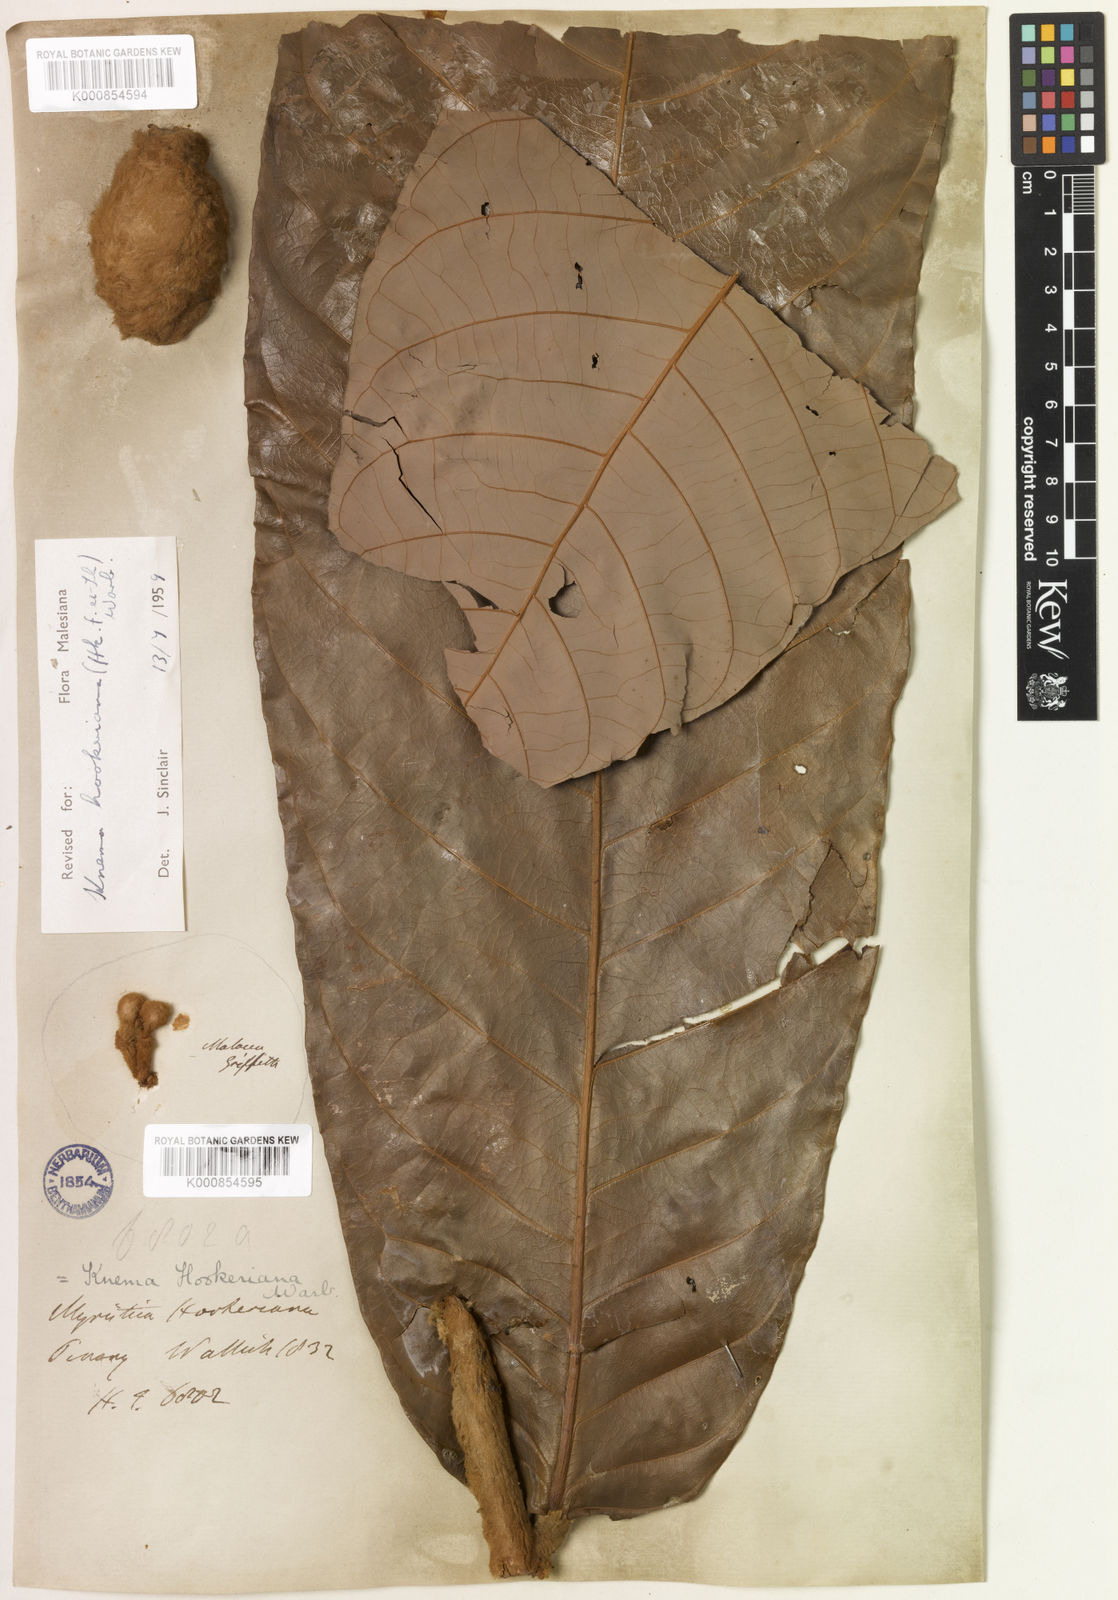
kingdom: Plantae
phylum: Tracheophyta
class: Magnoliopsida
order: Magnoliales
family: Myristicaceae
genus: Knema
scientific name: Knema hookeriana
